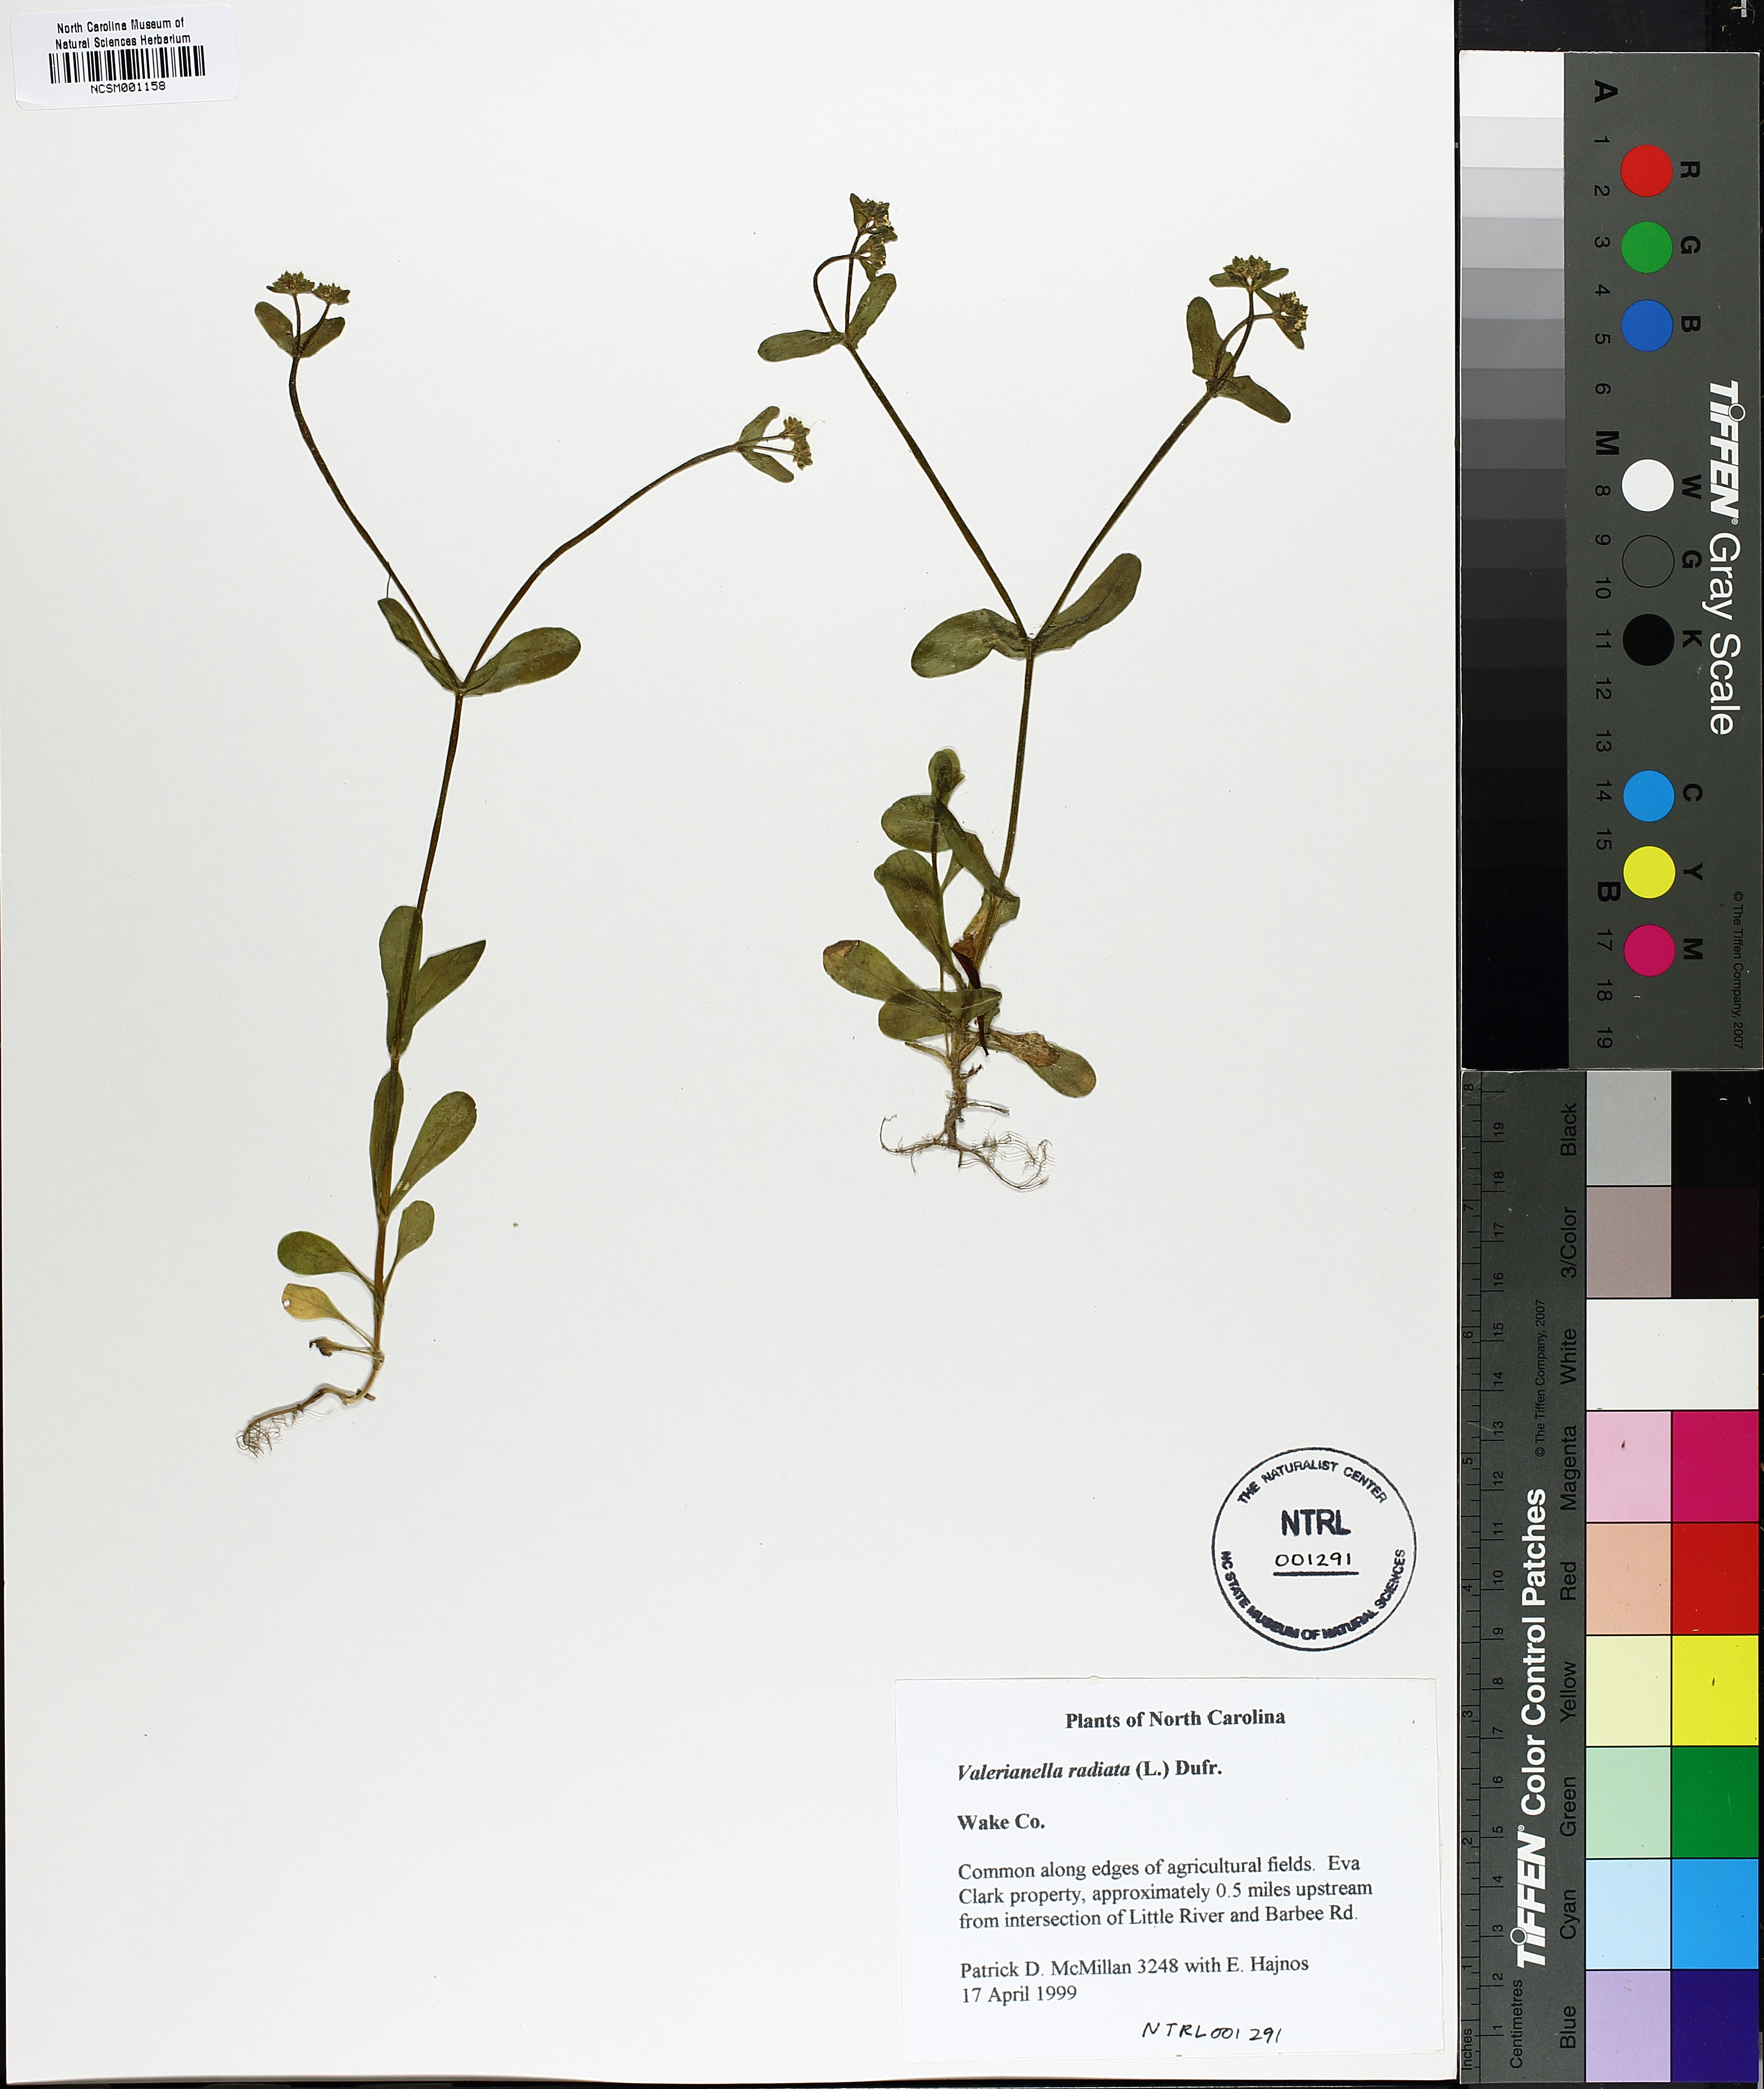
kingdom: Plantae
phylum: Tracheophyta
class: Magnoliopsida
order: Dipsacales
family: Caprifoliaceae
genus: Valerianella
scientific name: Valerianella radiata
